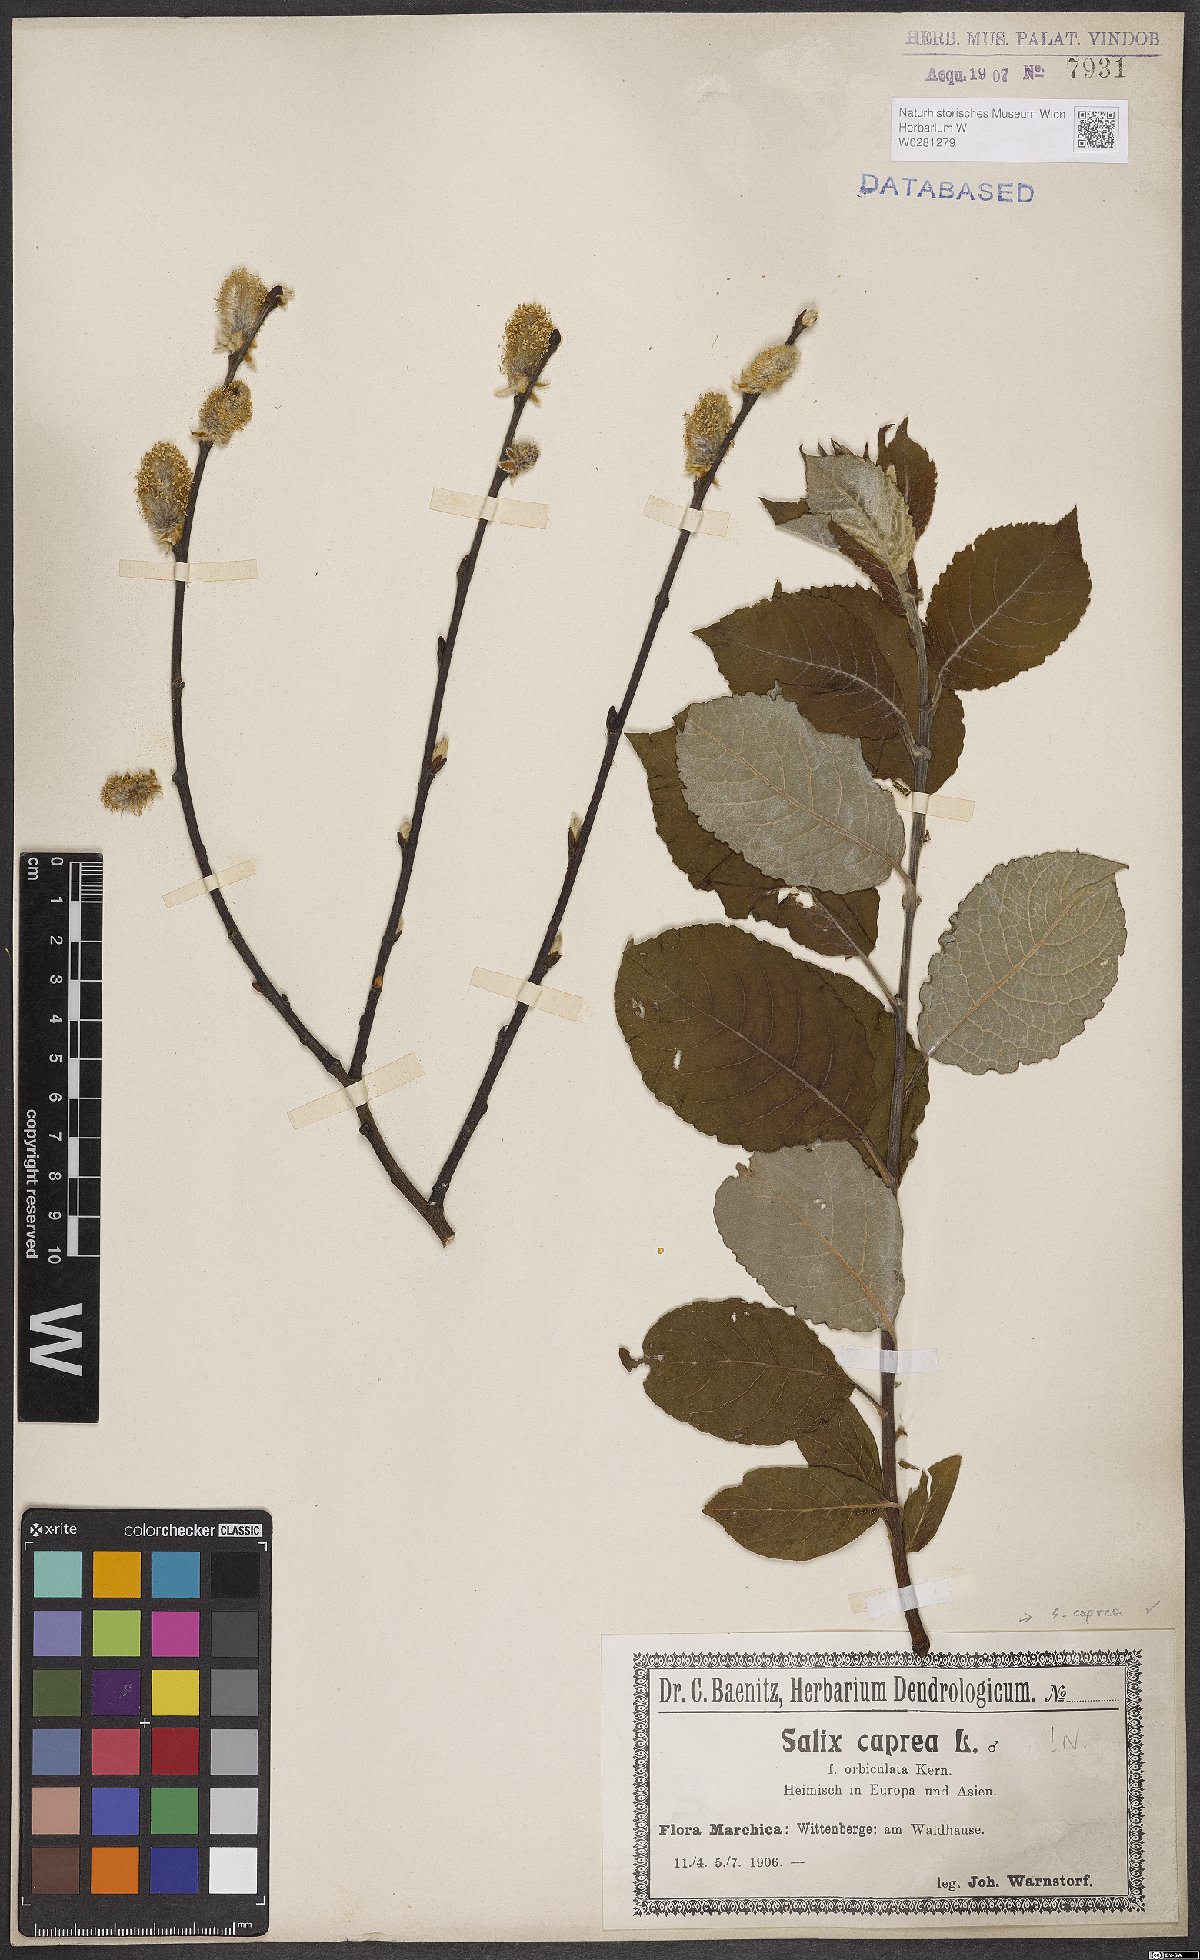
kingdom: Plantae
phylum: Tracheophyta
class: Magnoliopsida
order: Malpighiales
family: Salicaceae
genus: Salix
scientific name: Salix caprea
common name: Goat willow
